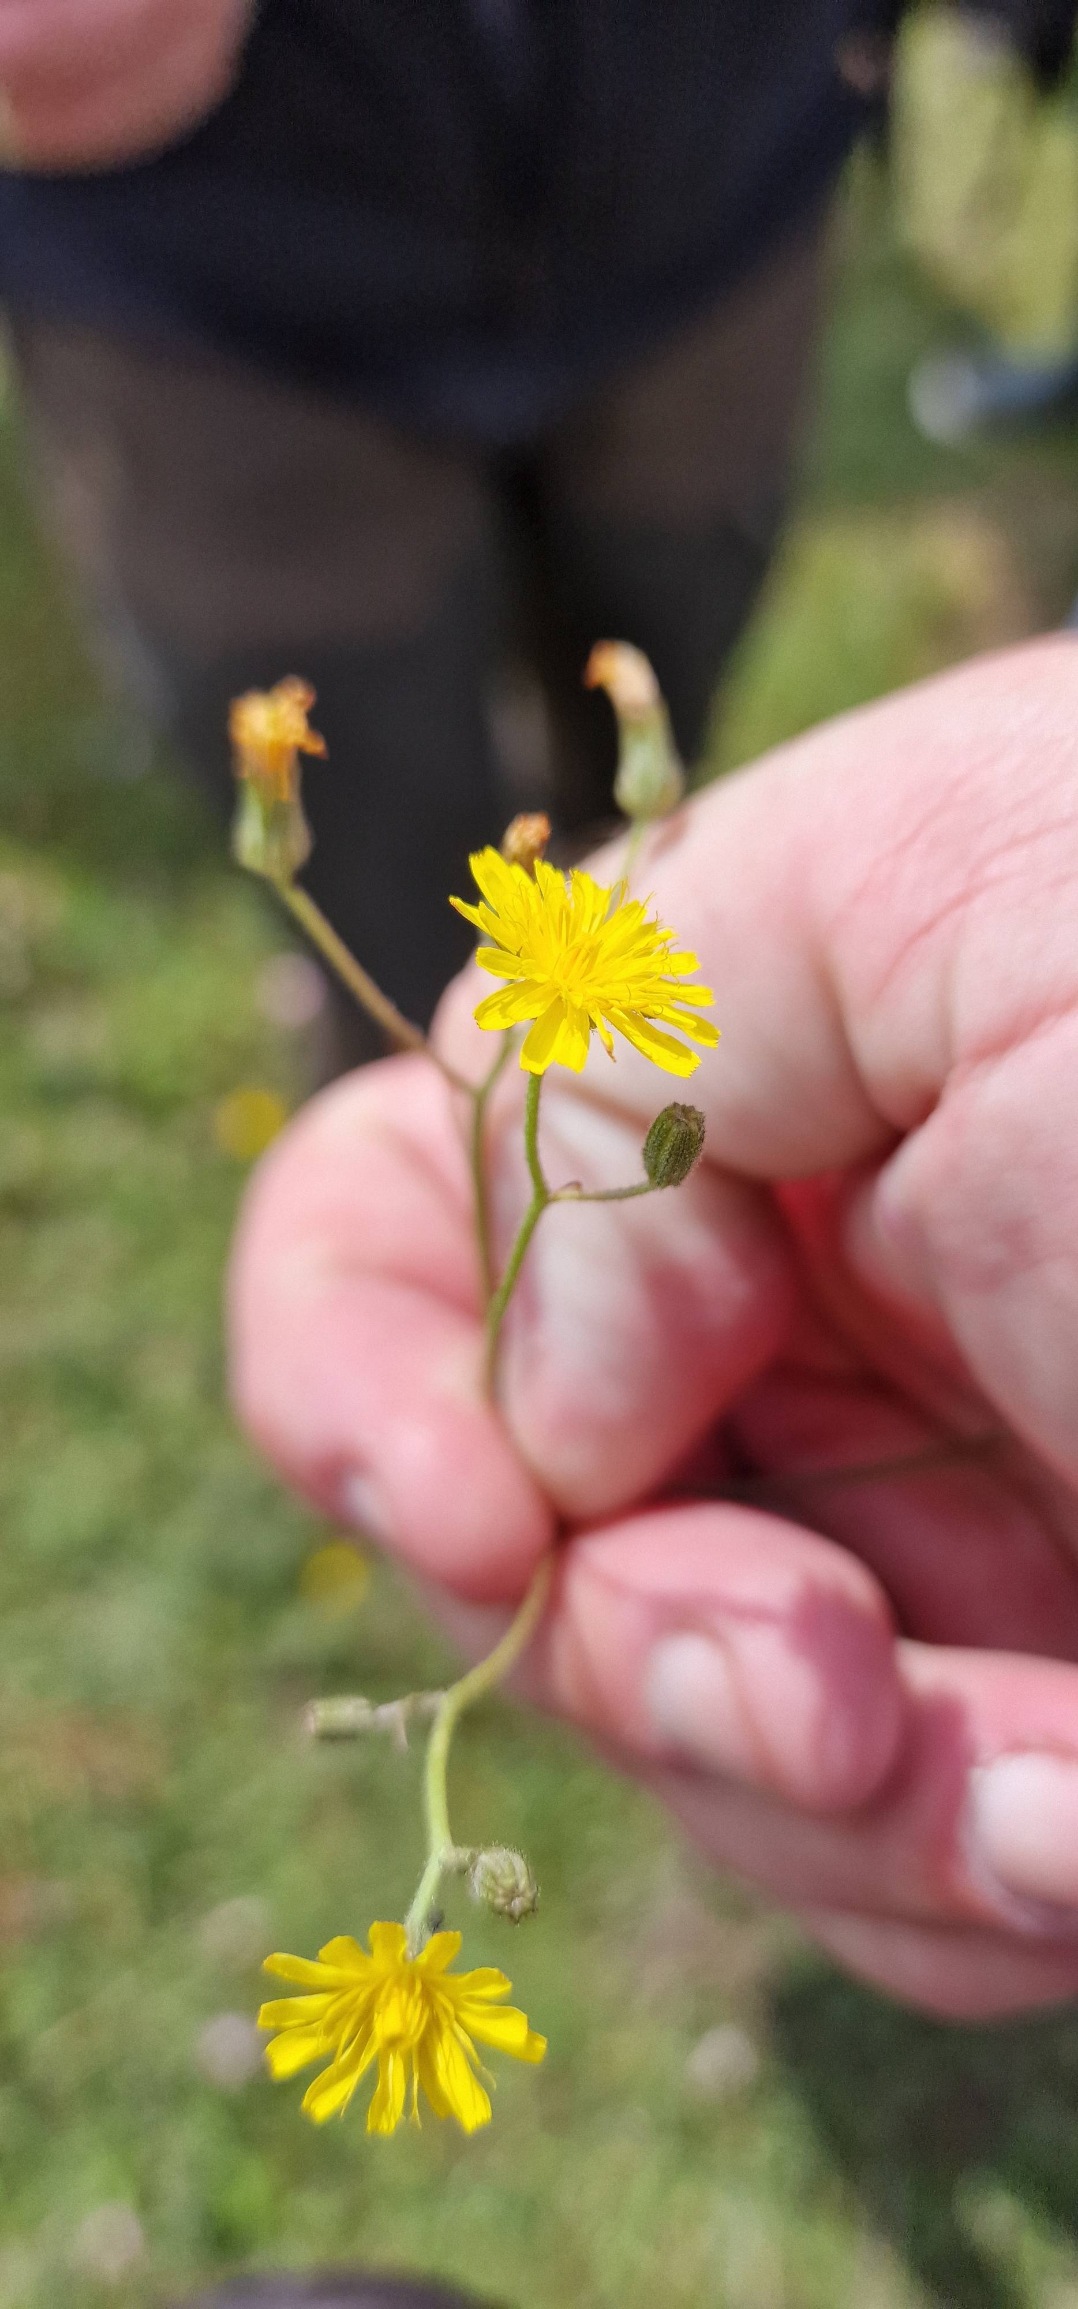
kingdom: Plantae
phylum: Tracheophyta
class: Magnoliopsida
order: Asterales
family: Asteraceae
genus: Crepis
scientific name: Crepis capillaris
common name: Grøn høgeskæg
